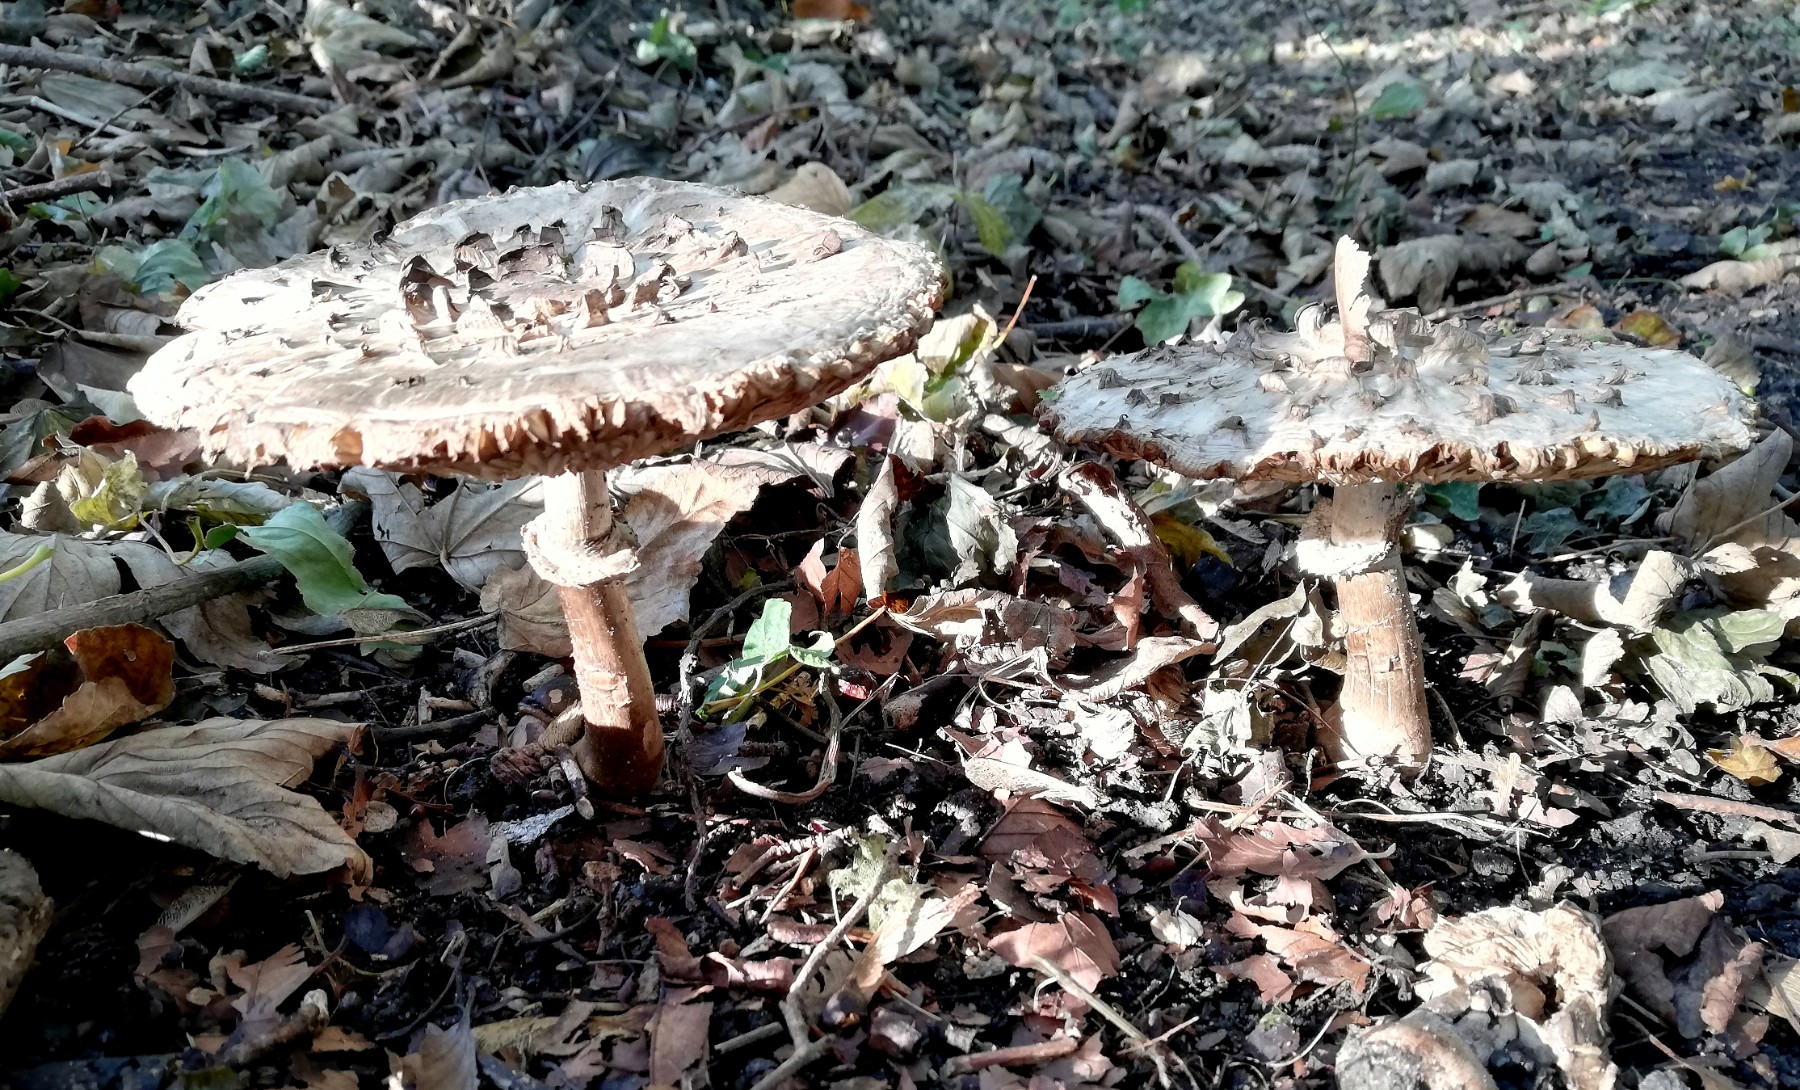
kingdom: Fungi
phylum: Basidiomycota
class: Agaricomycetes
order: Agaricales
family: Agaricaceae
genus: Chlorophyllum
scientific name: Chlorophyllum
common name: rabarberhat
